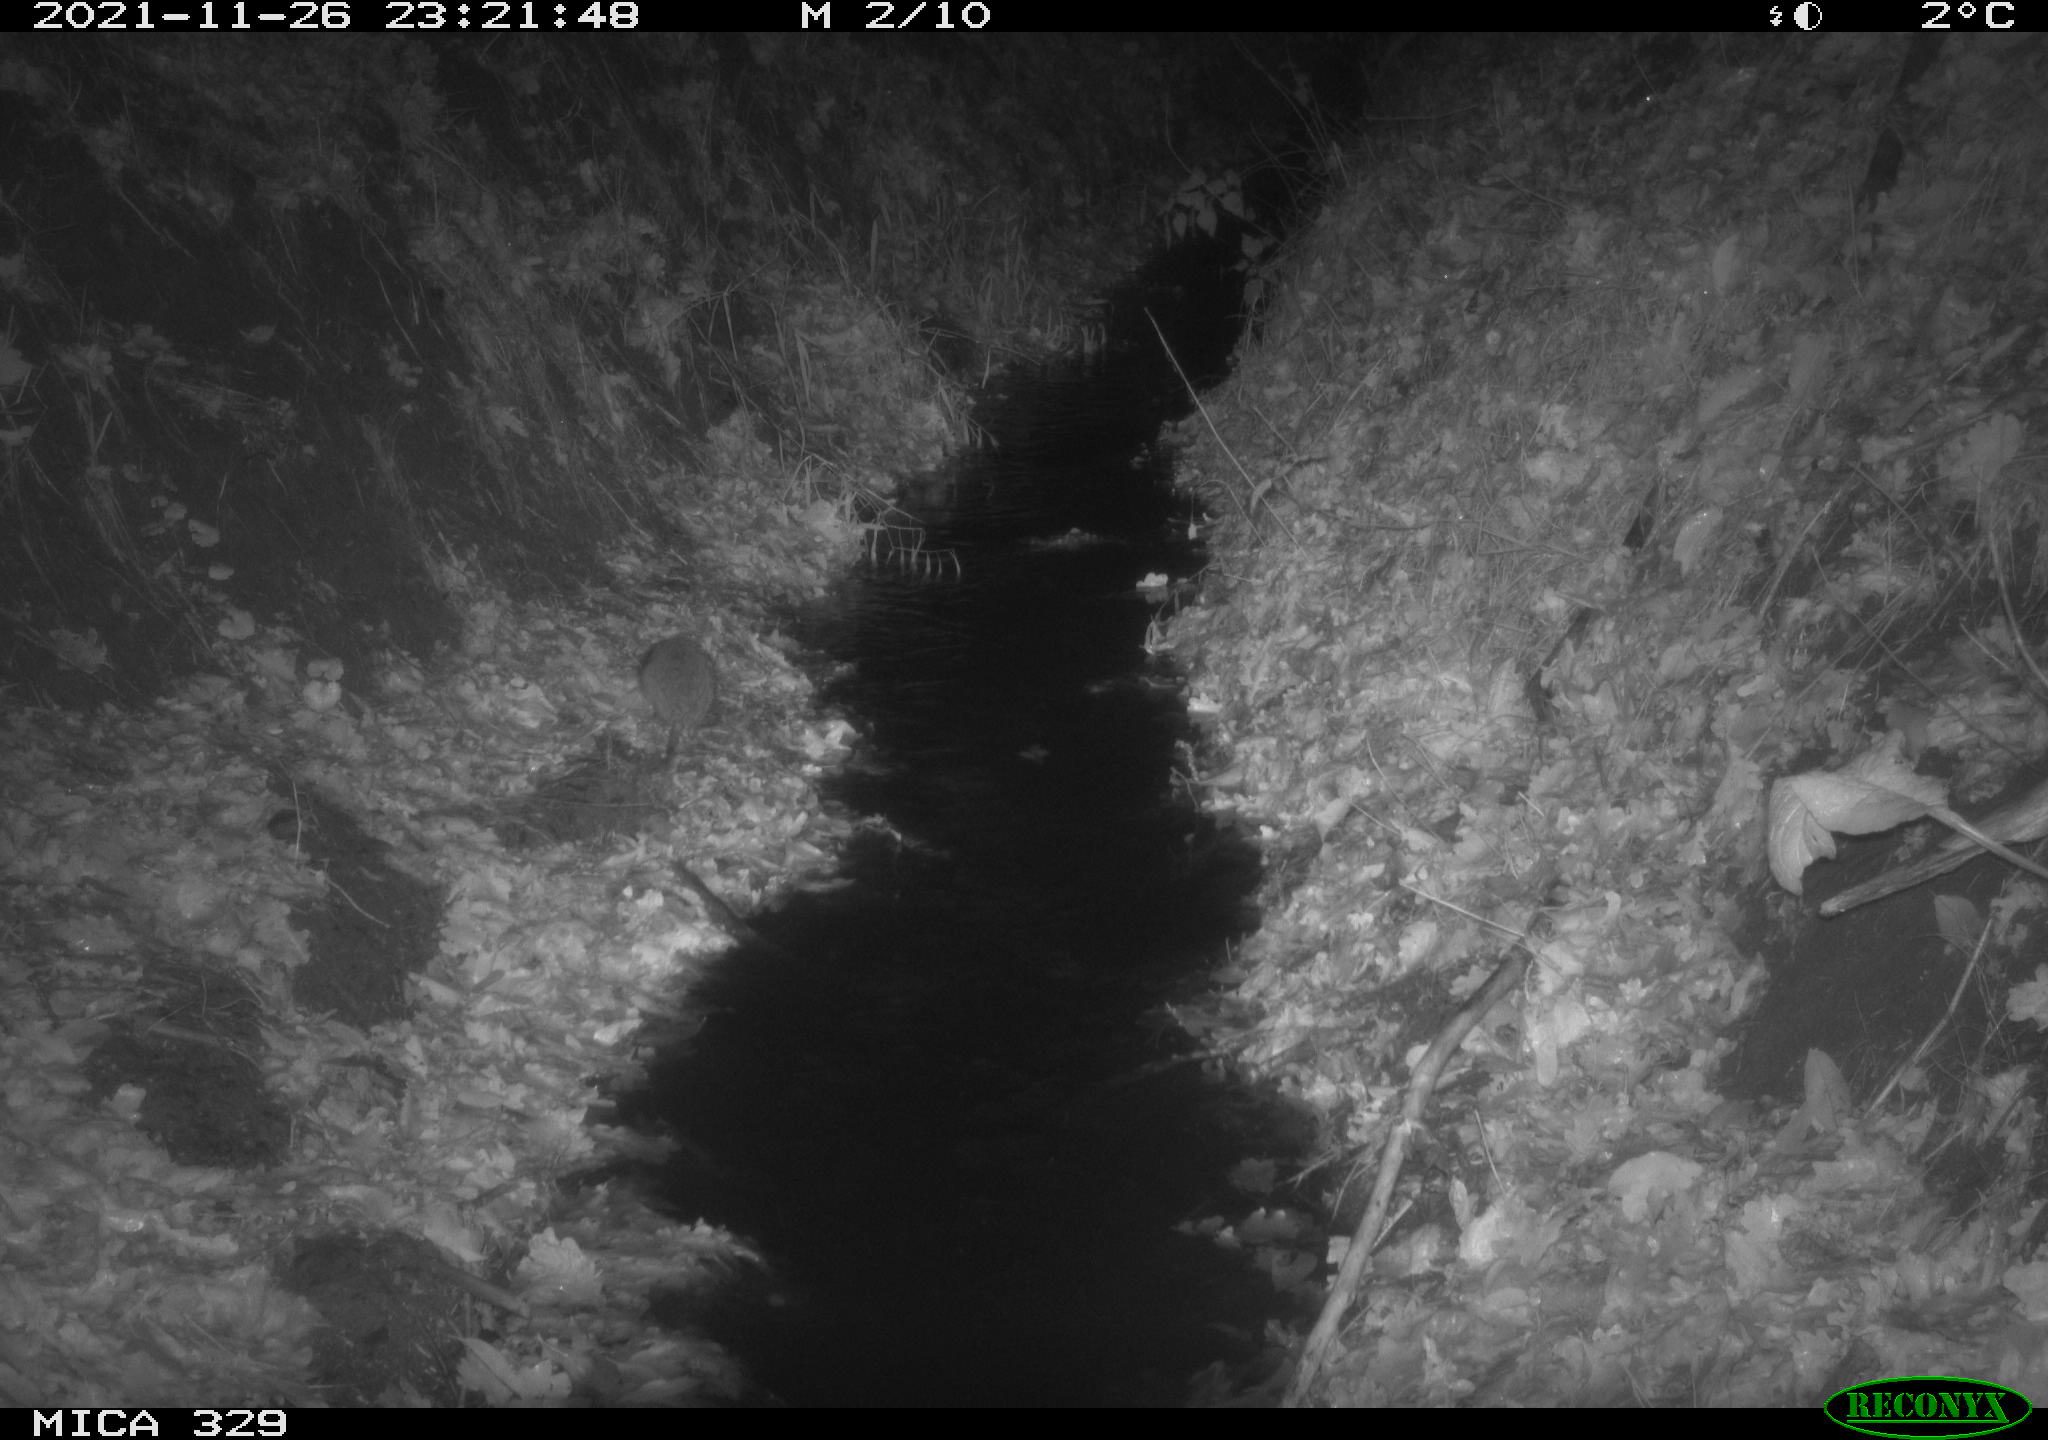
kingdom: Animalia
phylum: Chordata
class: Mammalia
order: Rodentia
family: Muridae
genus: Rattus
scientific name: Rattus norvegicus
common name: Brown rat
